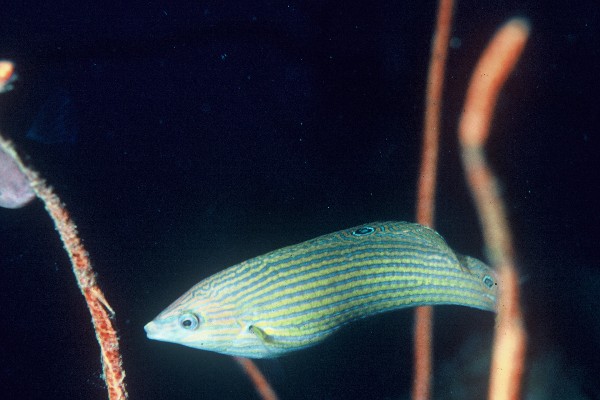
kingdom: Animalia
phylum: Chordata
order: Perciformes
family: Labridae
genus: Halichoeres
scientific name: Halichoeres melanurus
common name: Hoeven's wrasse
